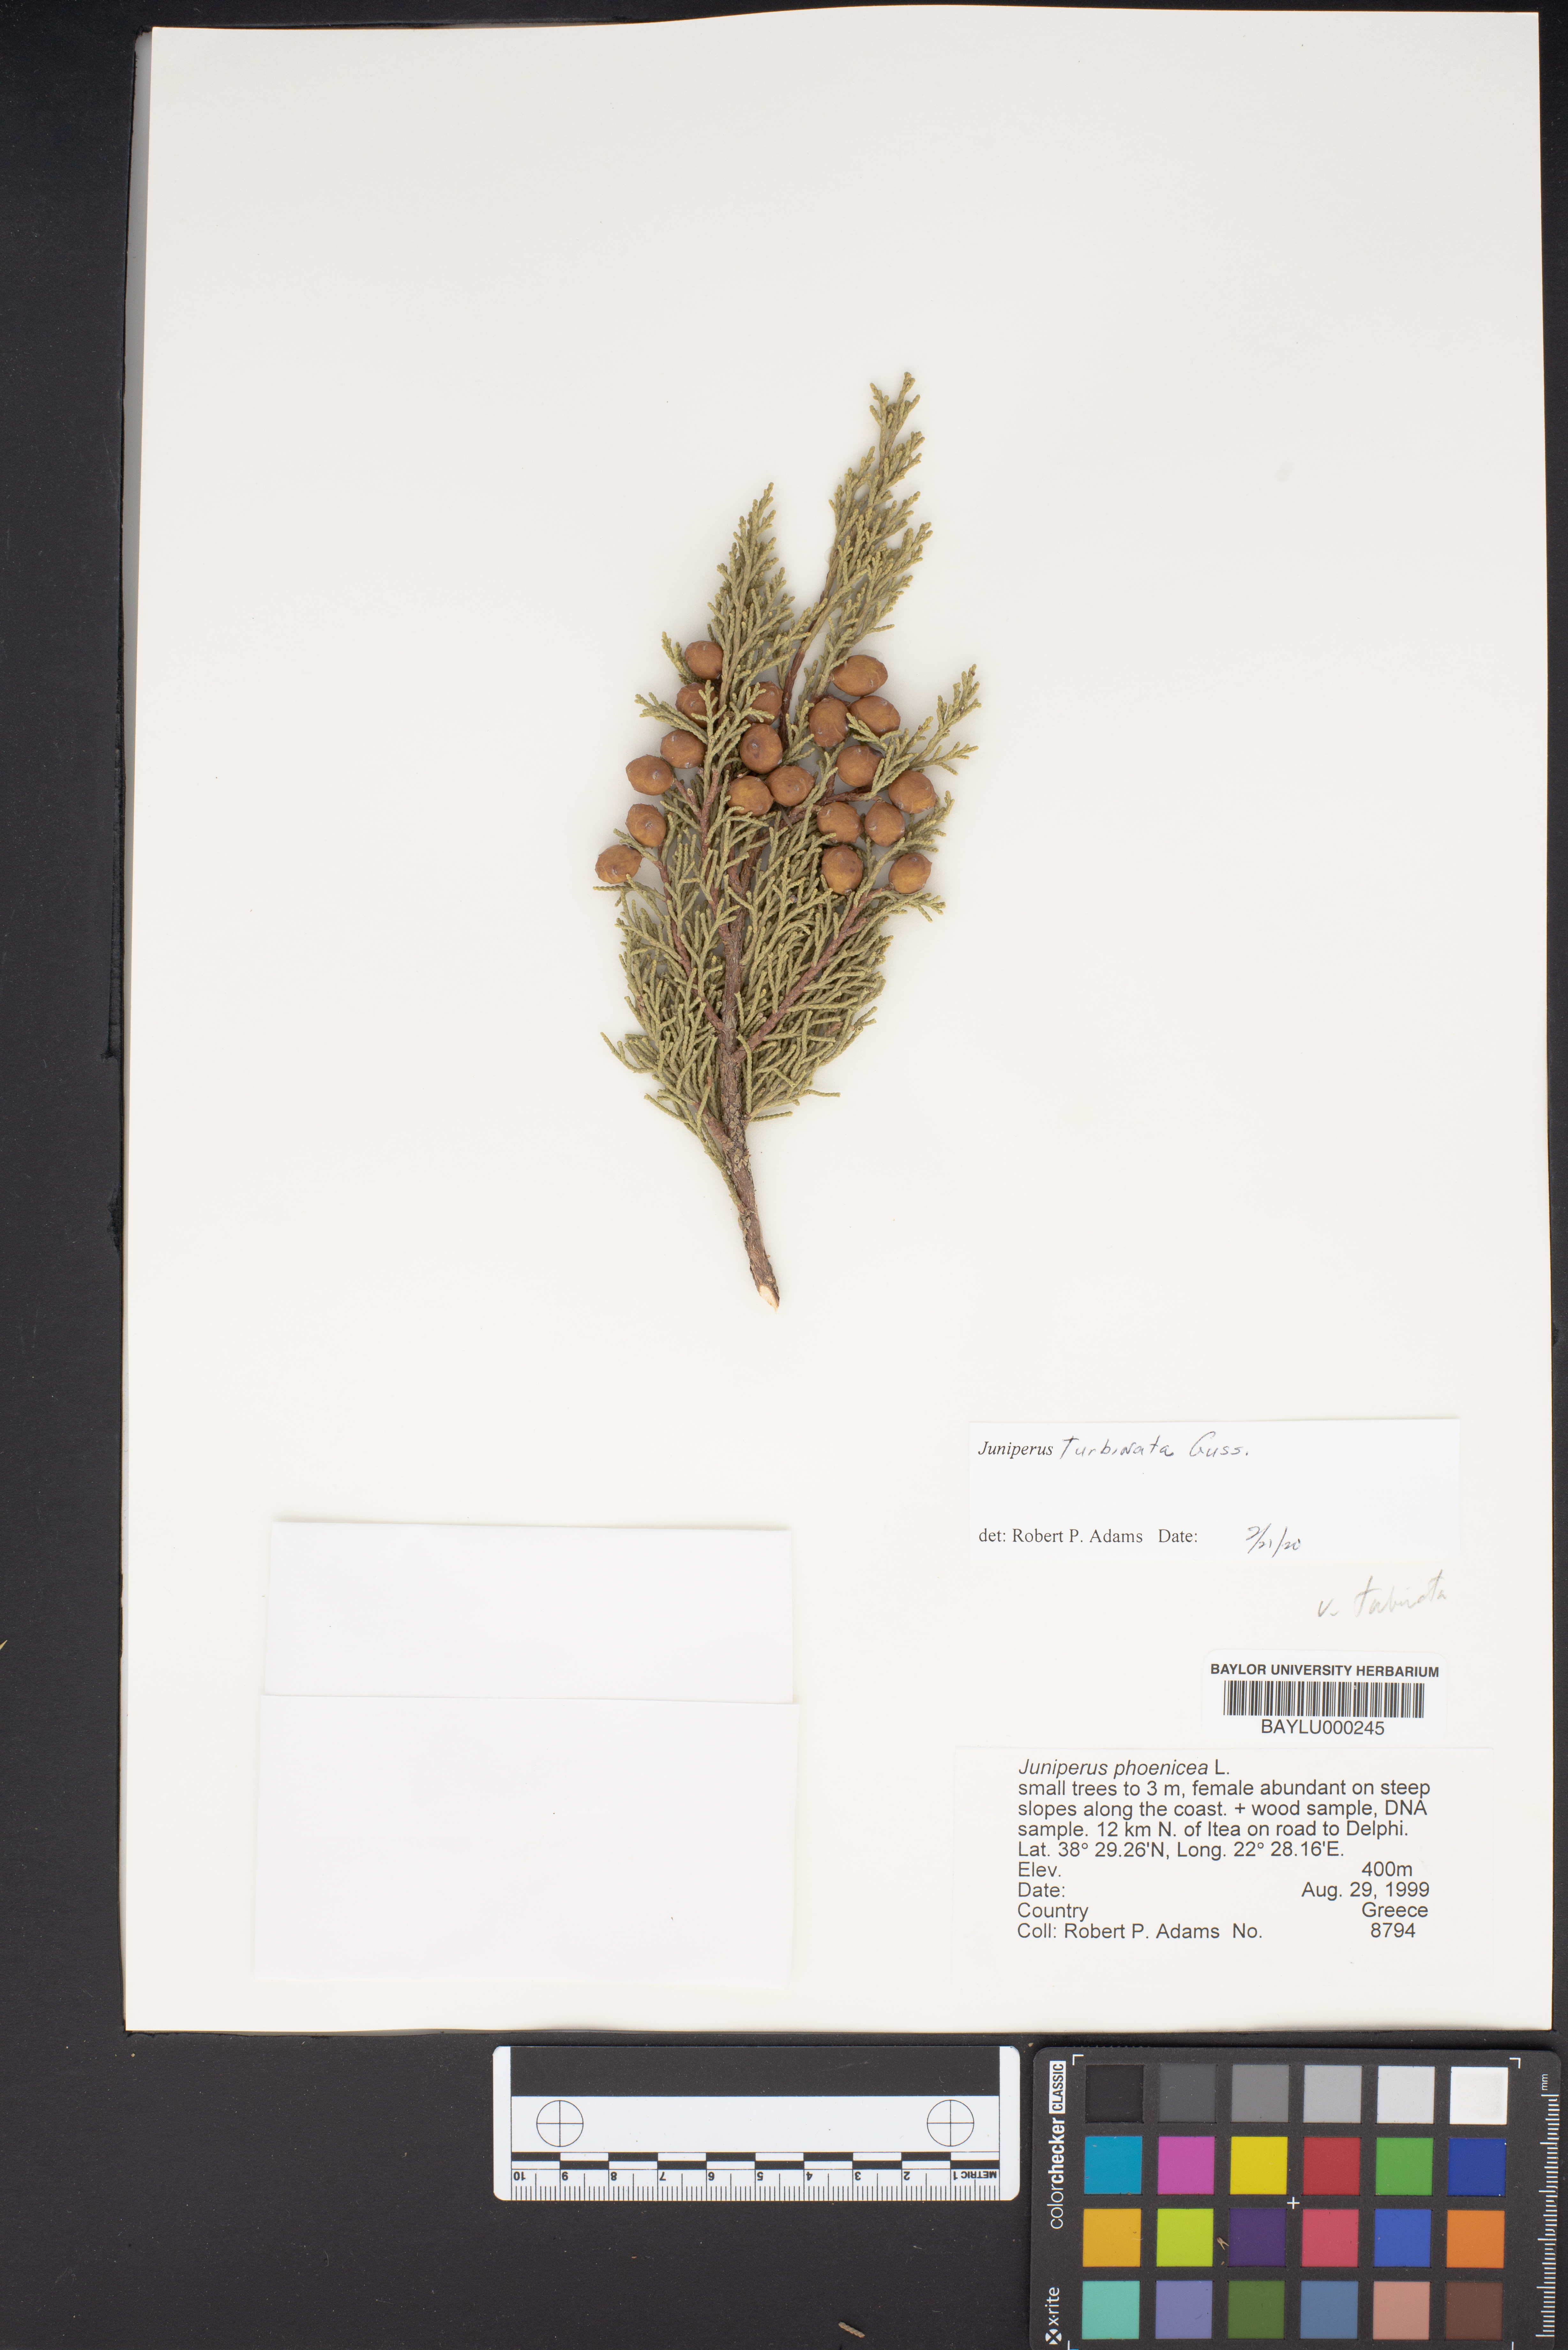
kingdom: Plantae
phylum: Tracheophyta
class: Pinopsida
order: Pinales
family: Cupressaceae
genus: Juniperus
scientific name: Juniperus phoenicea
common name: Phoenician juniper
